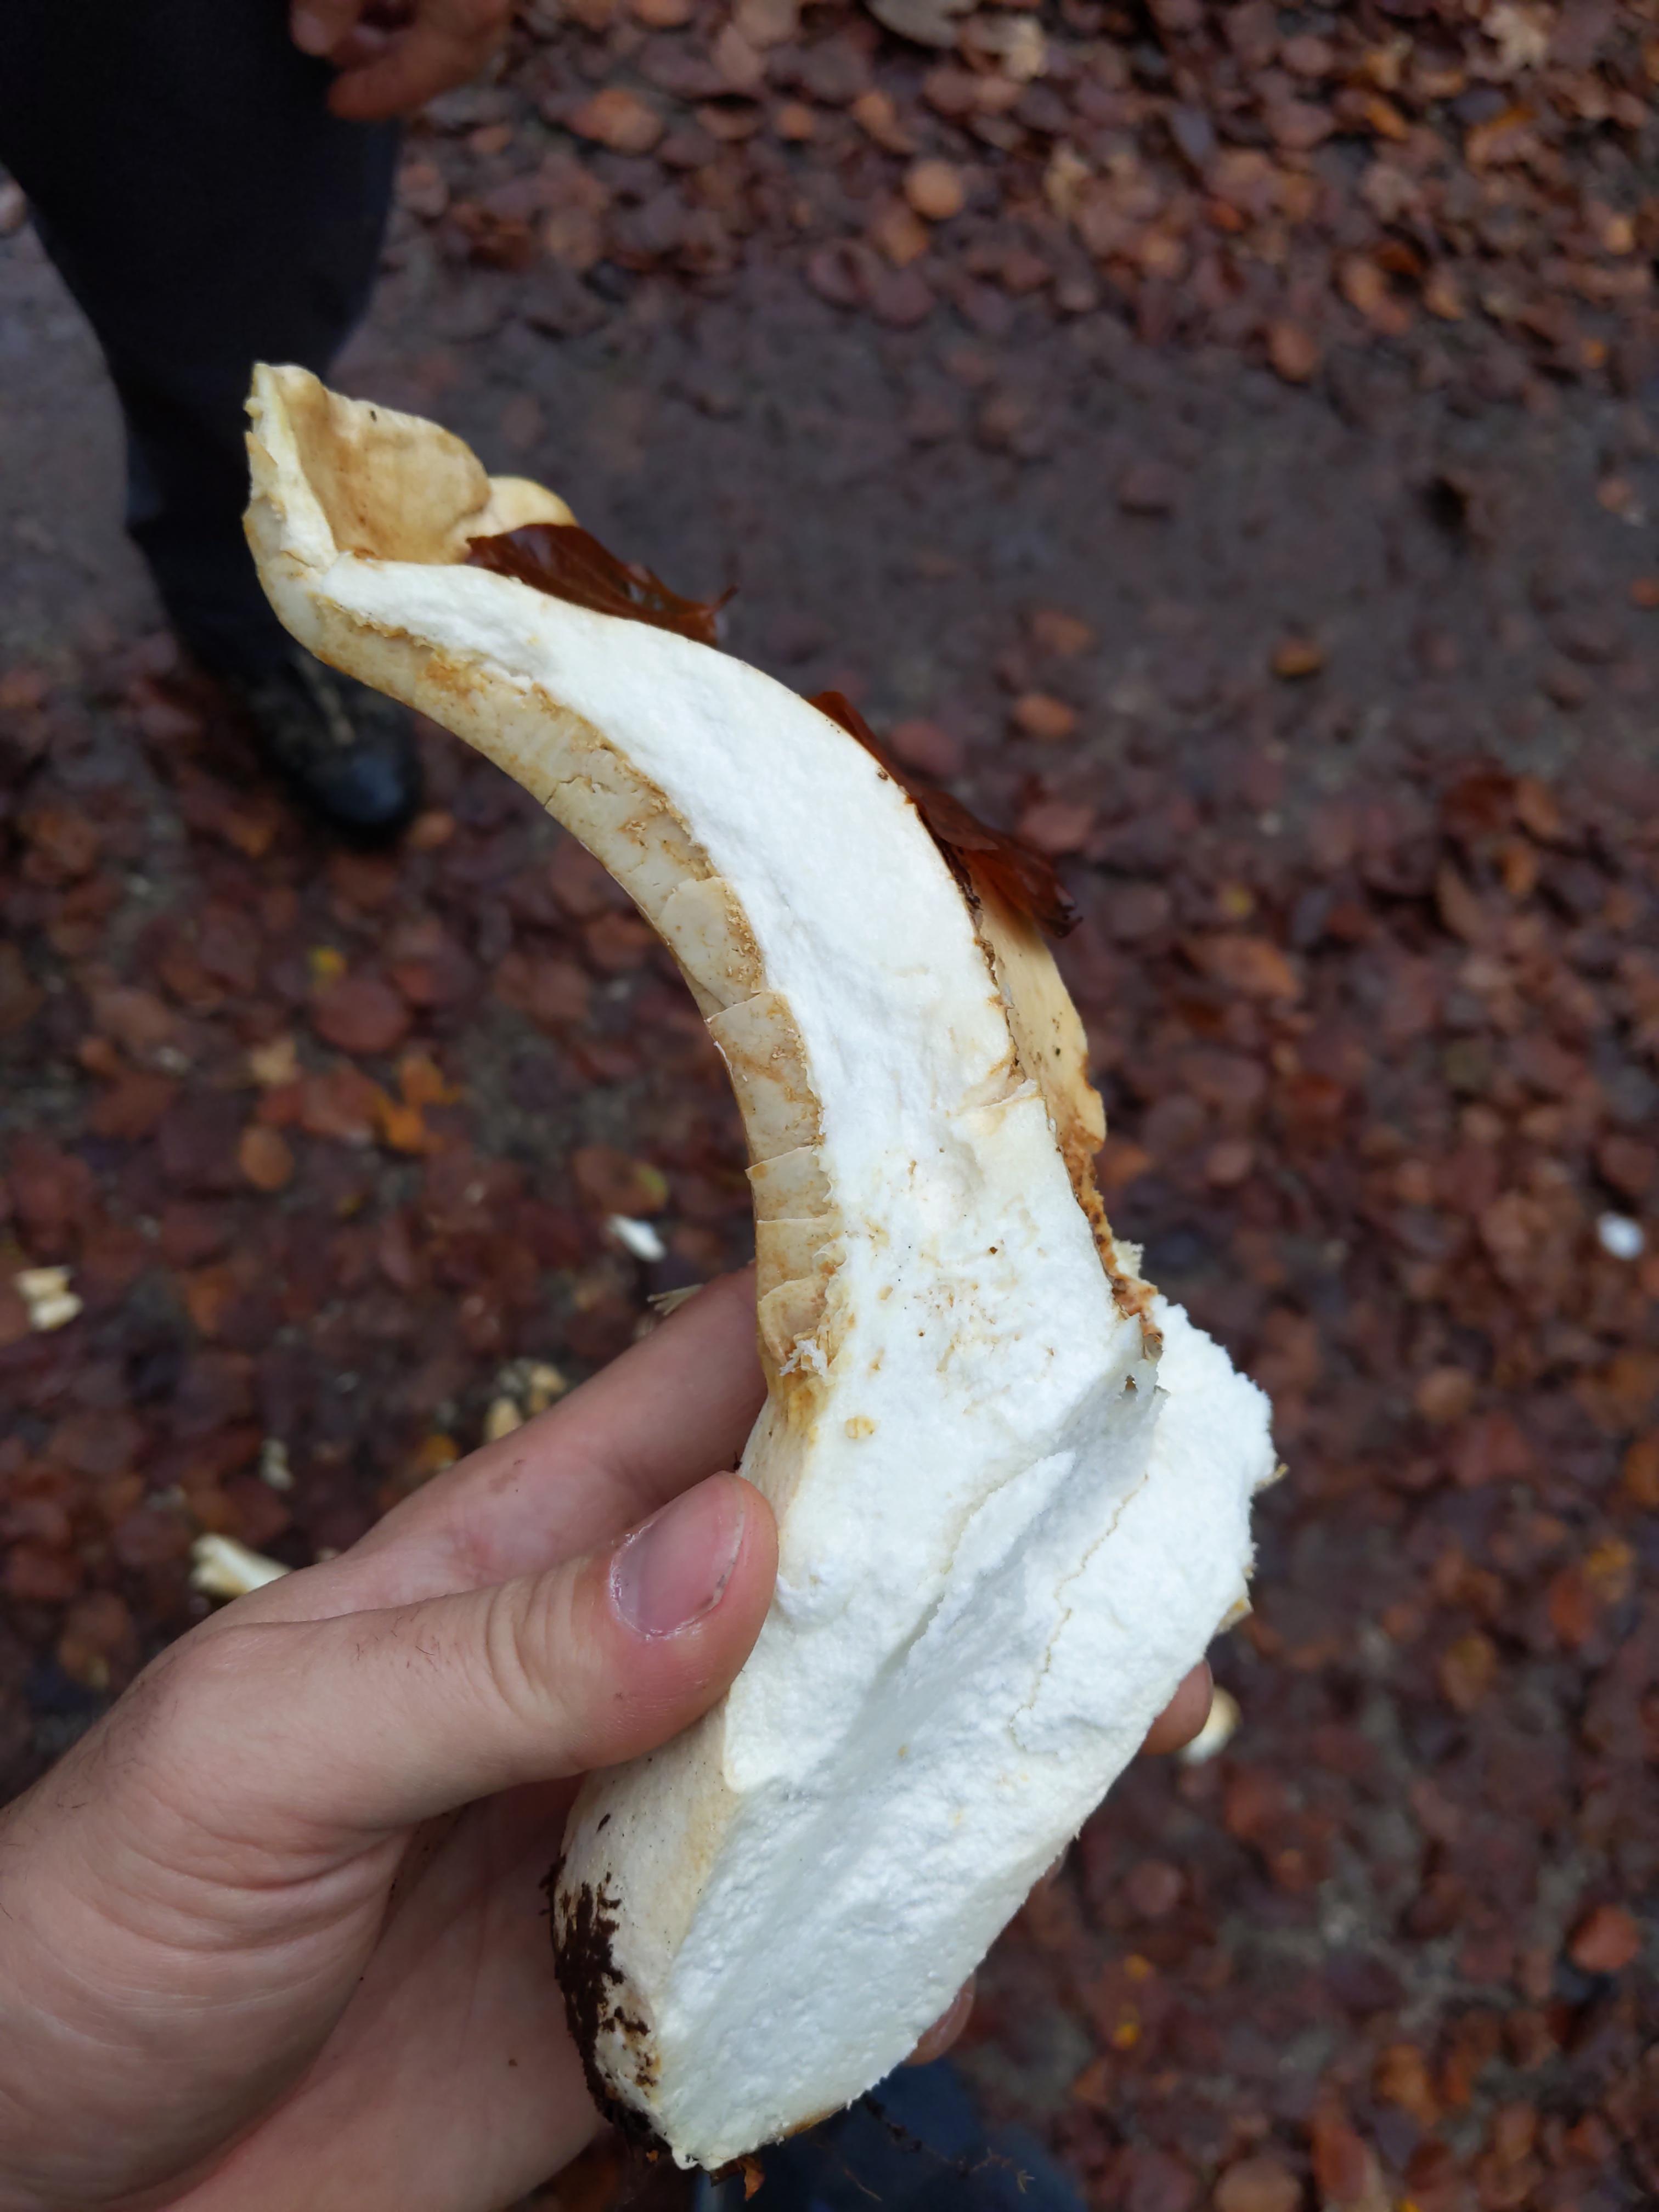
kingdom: Fungi
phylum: Basidiomycota
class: Agaricomycetes
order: Russulales
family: Russulaceae
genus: Russula
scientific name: Russula delica
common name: almindelig tragt-skørhat
